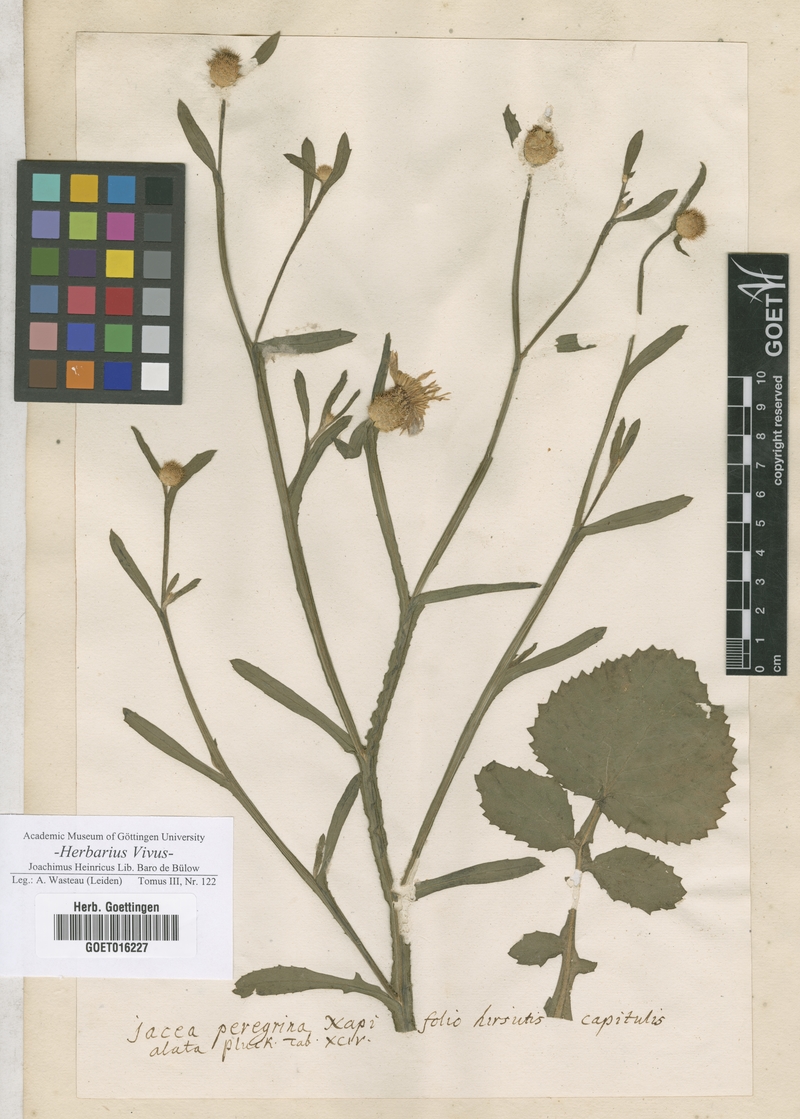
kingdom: Plantae
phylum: Tracheophyta
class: Magnoliopsida
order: Asterales
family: Asteraceae
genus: Centaurea
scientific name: Centaurea napifolia
